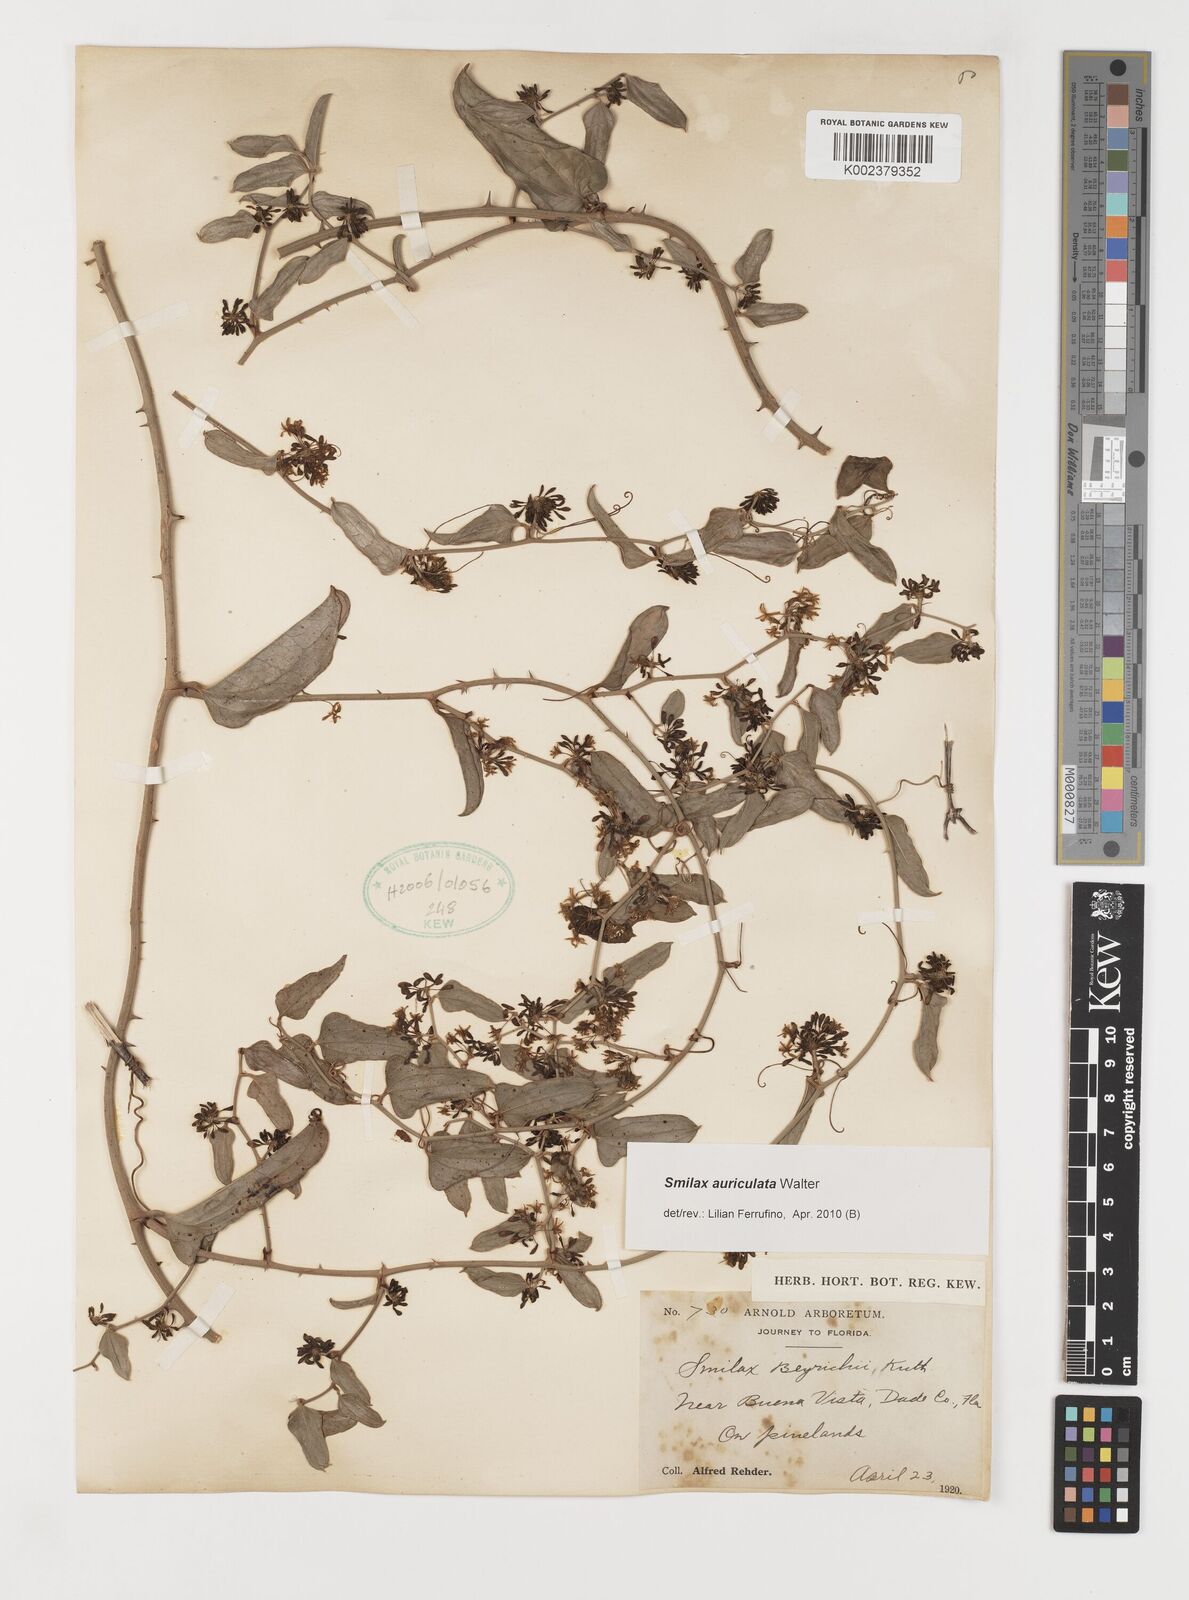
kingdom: Plantae
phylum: Tracheophyta
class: Liliopsida
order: Liliales
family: Smilacaceae
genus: Smilax
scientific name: Smilax auriculata
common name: Wild bamboo
